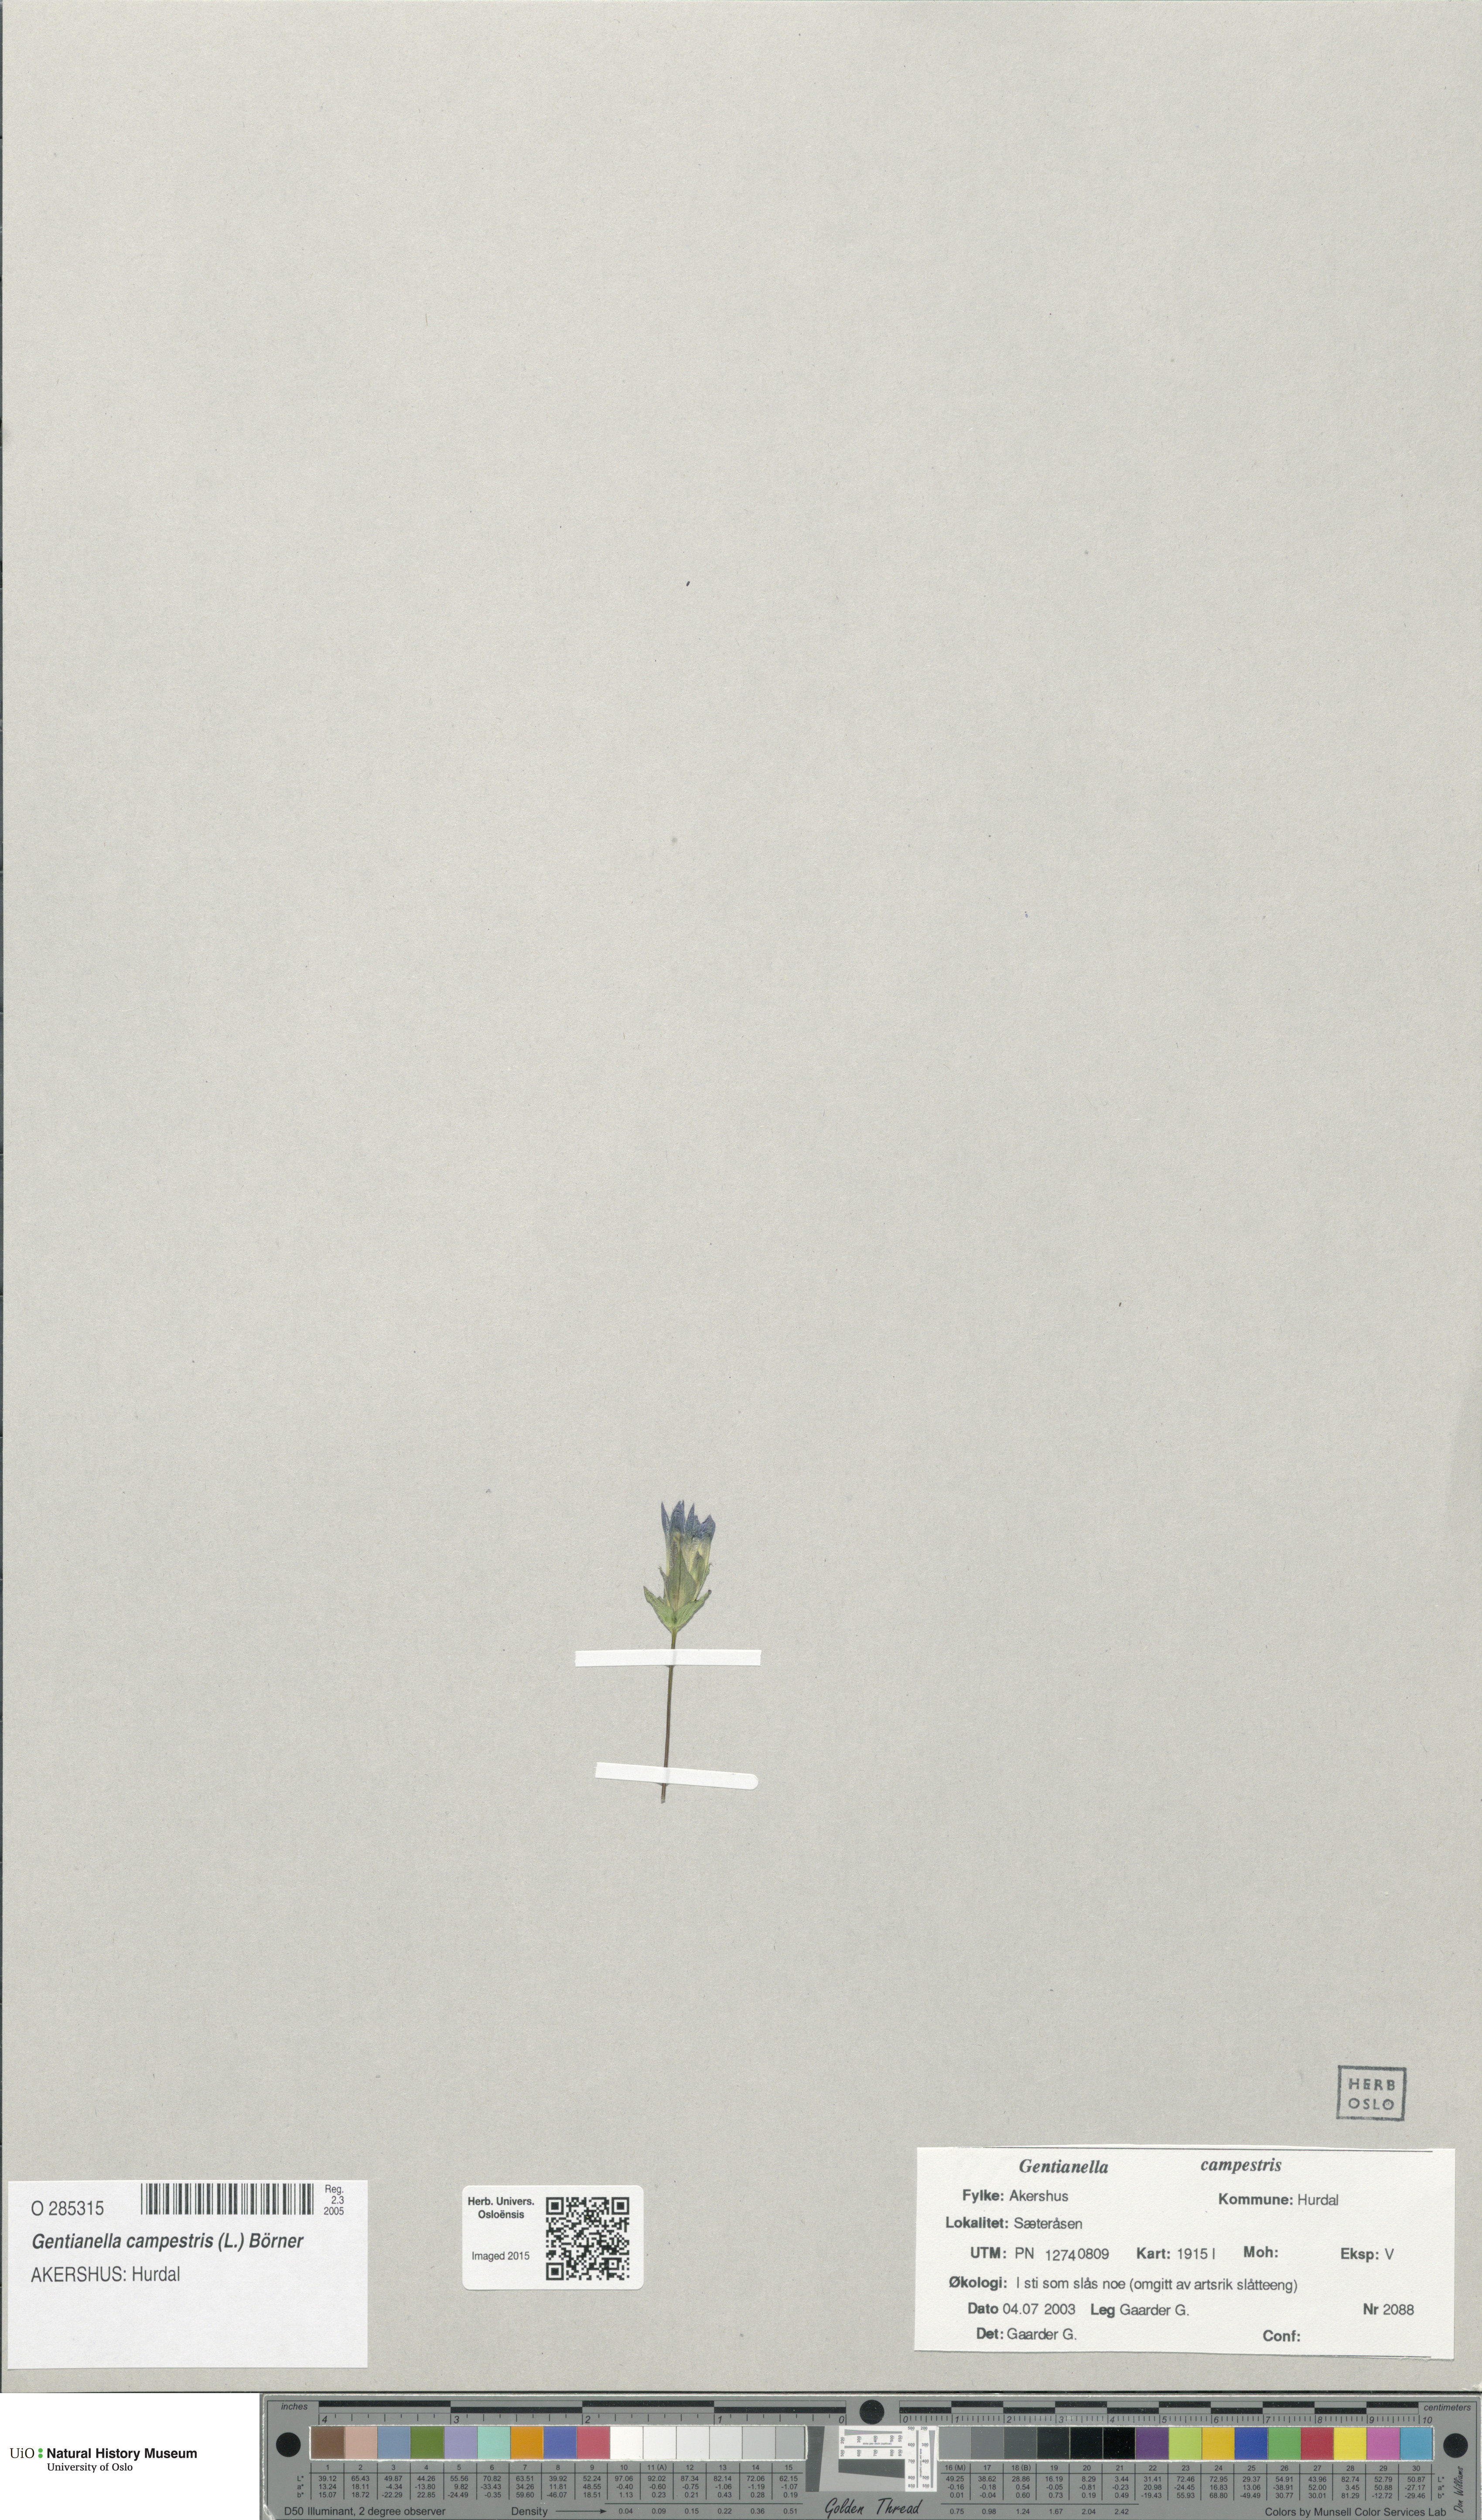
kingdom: Plantae
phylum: Tracheophyta
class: Magnoliopsida
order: Gentianales
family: Gentianaceae
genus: Gentianella
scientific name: Gentianella campestris
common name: Field gentian
